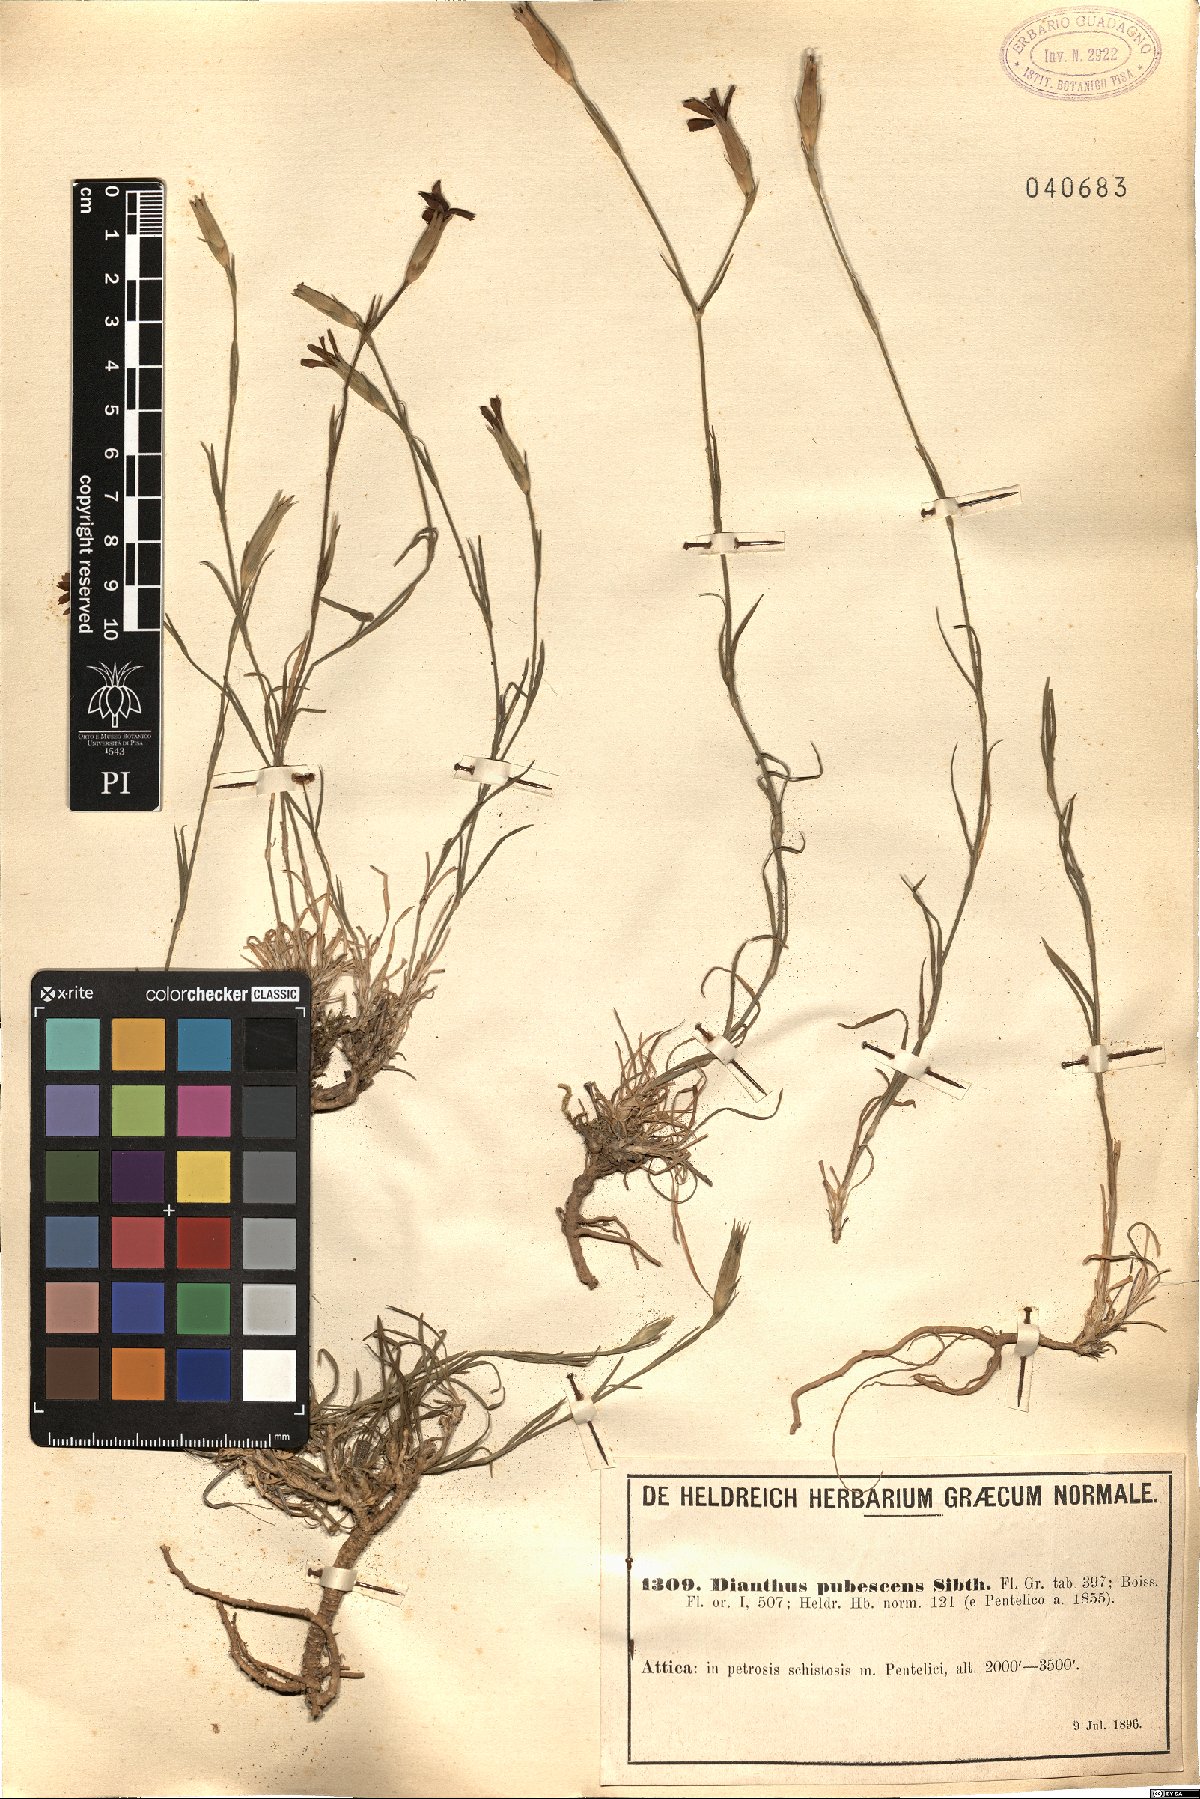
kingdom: Plantae
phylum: Tracheophyta
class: Magnoliopsida
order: Caryophyllales
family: Caryophyllaceae
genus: Dianthus
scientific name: Dianthus diffusus
